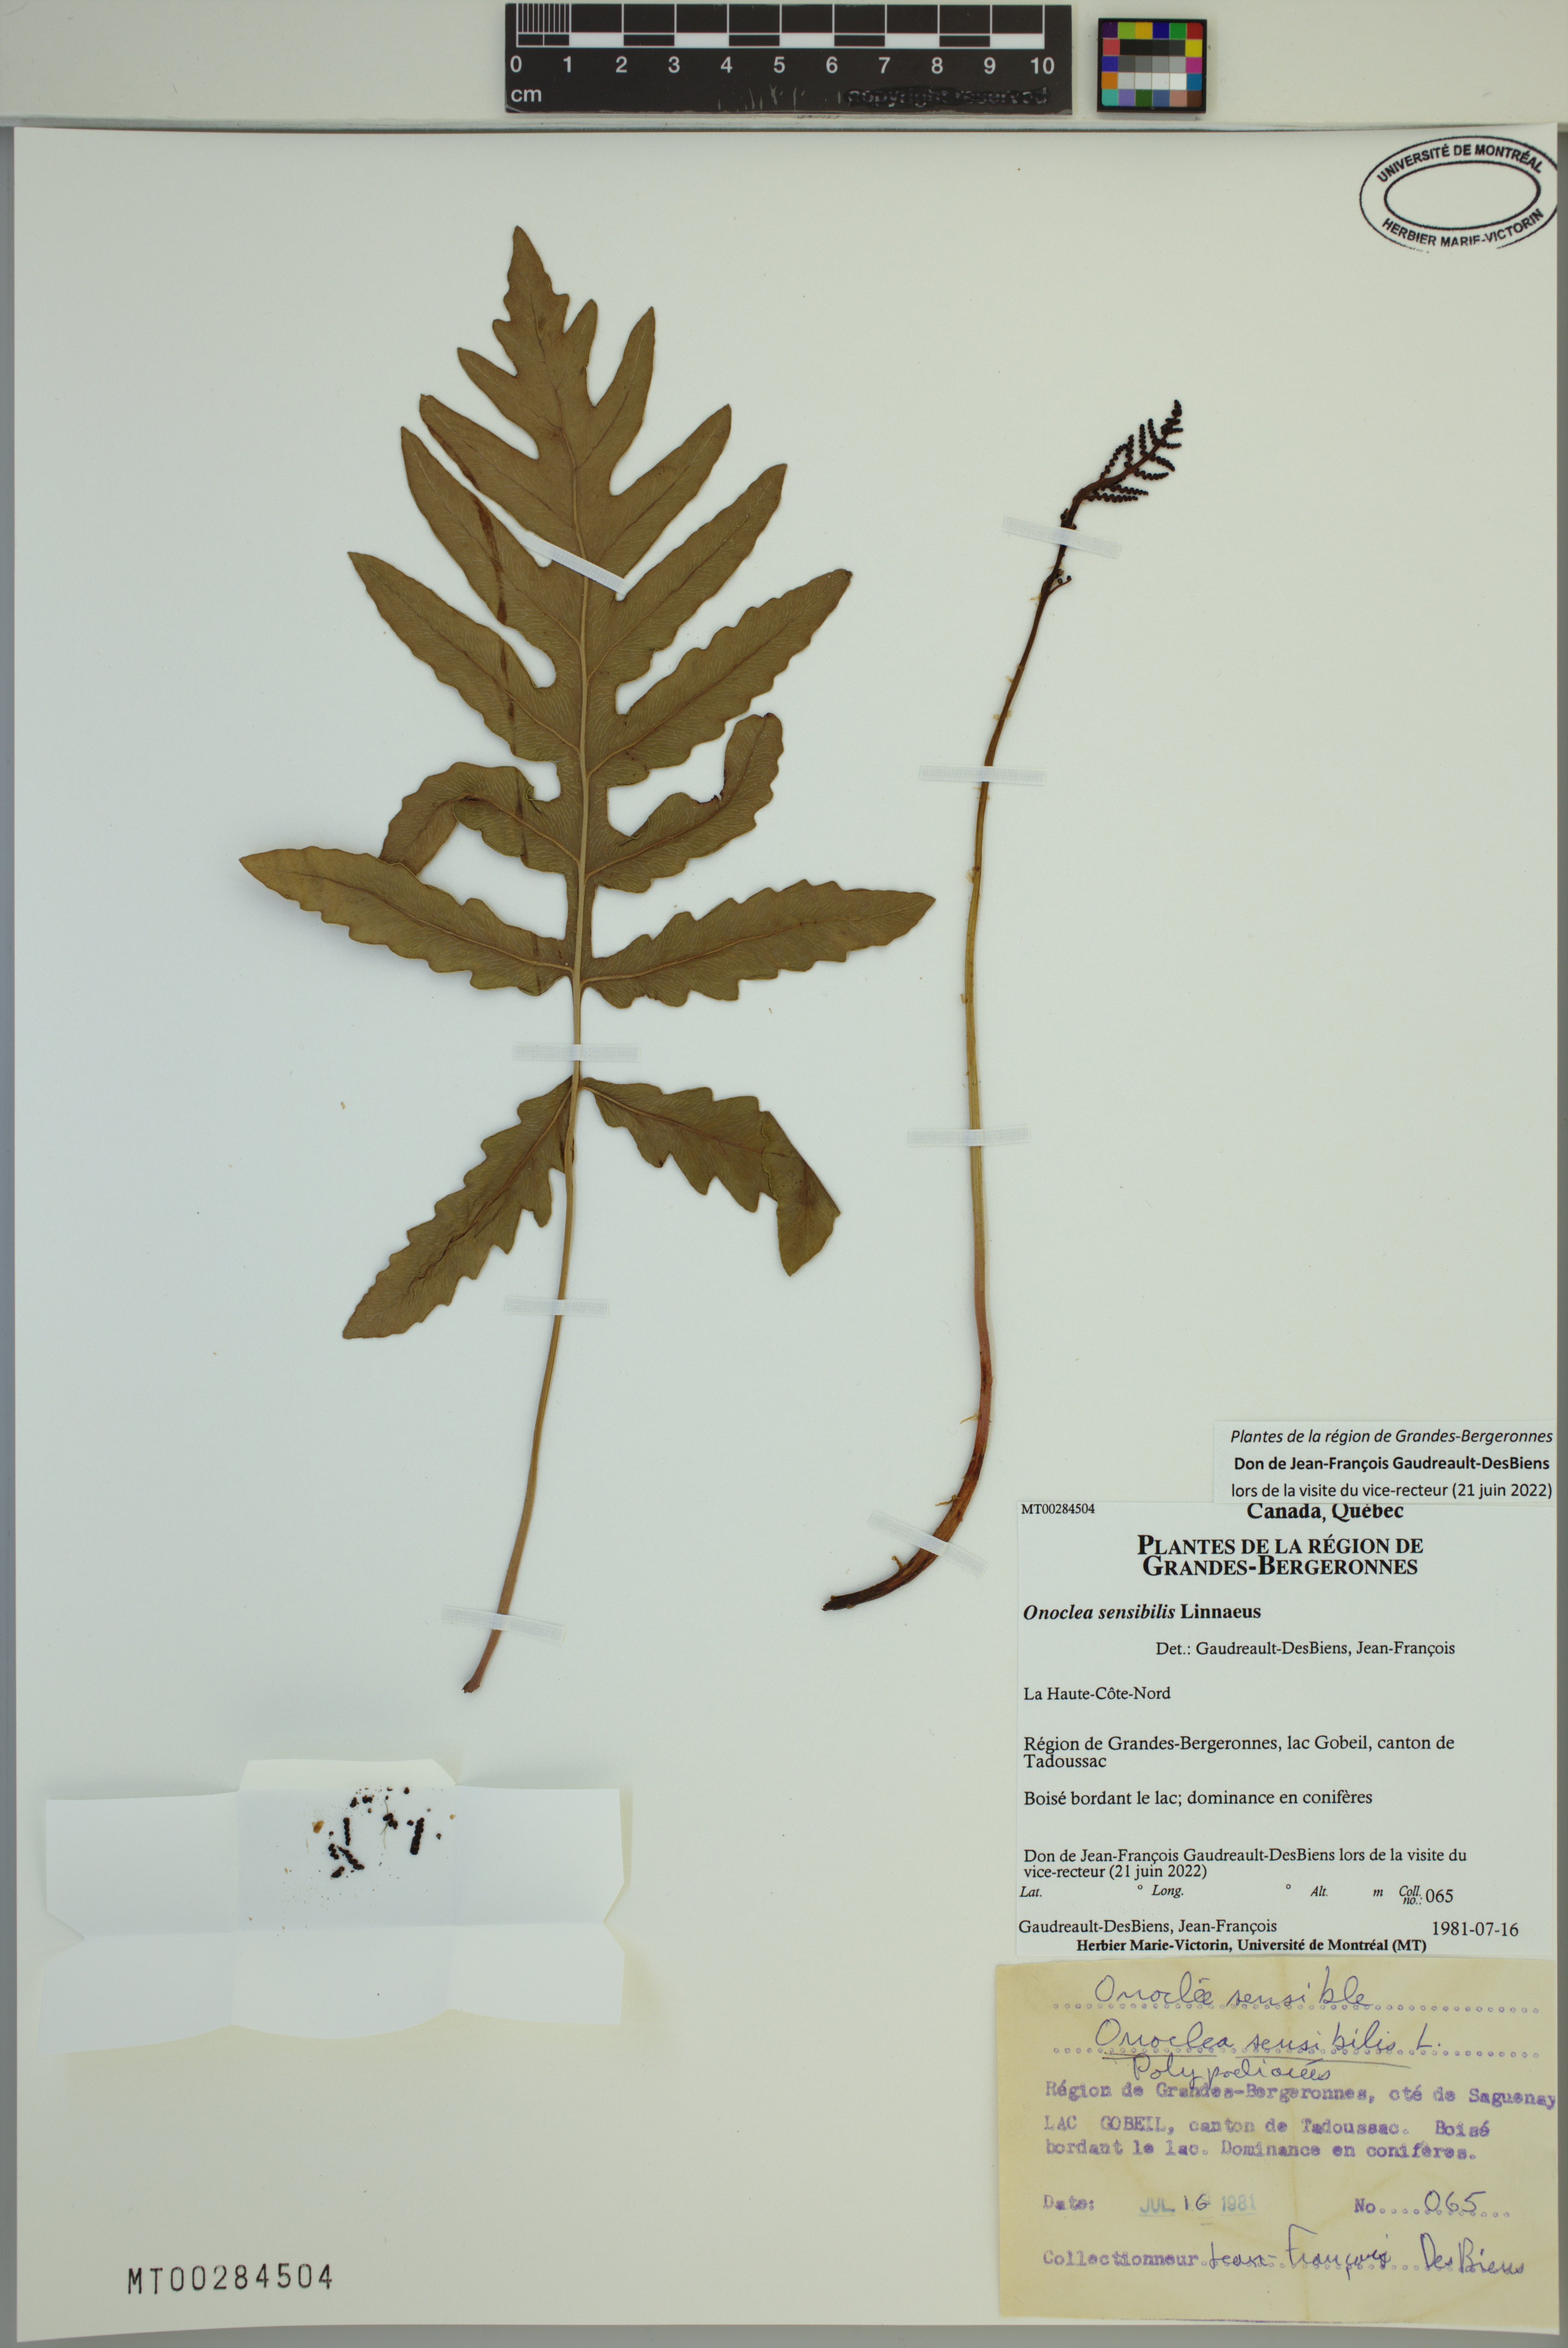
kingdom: Plantae
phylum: Tracheophyta
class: Polypodiopsida
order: Polypodiales
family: Onocleaceae
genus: Onoclea
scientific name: Onoclea sensibilis
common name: Sensitive fern
